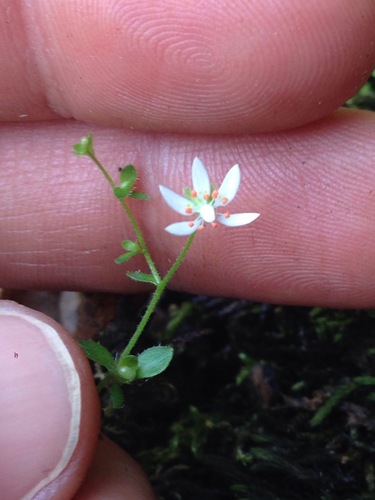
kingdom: Plantae
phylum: Tracheophyta
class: Magnoliopsida
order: Saxifragales
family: Saxifragaceae
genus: Micranthes
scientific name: Micranthes clusii
